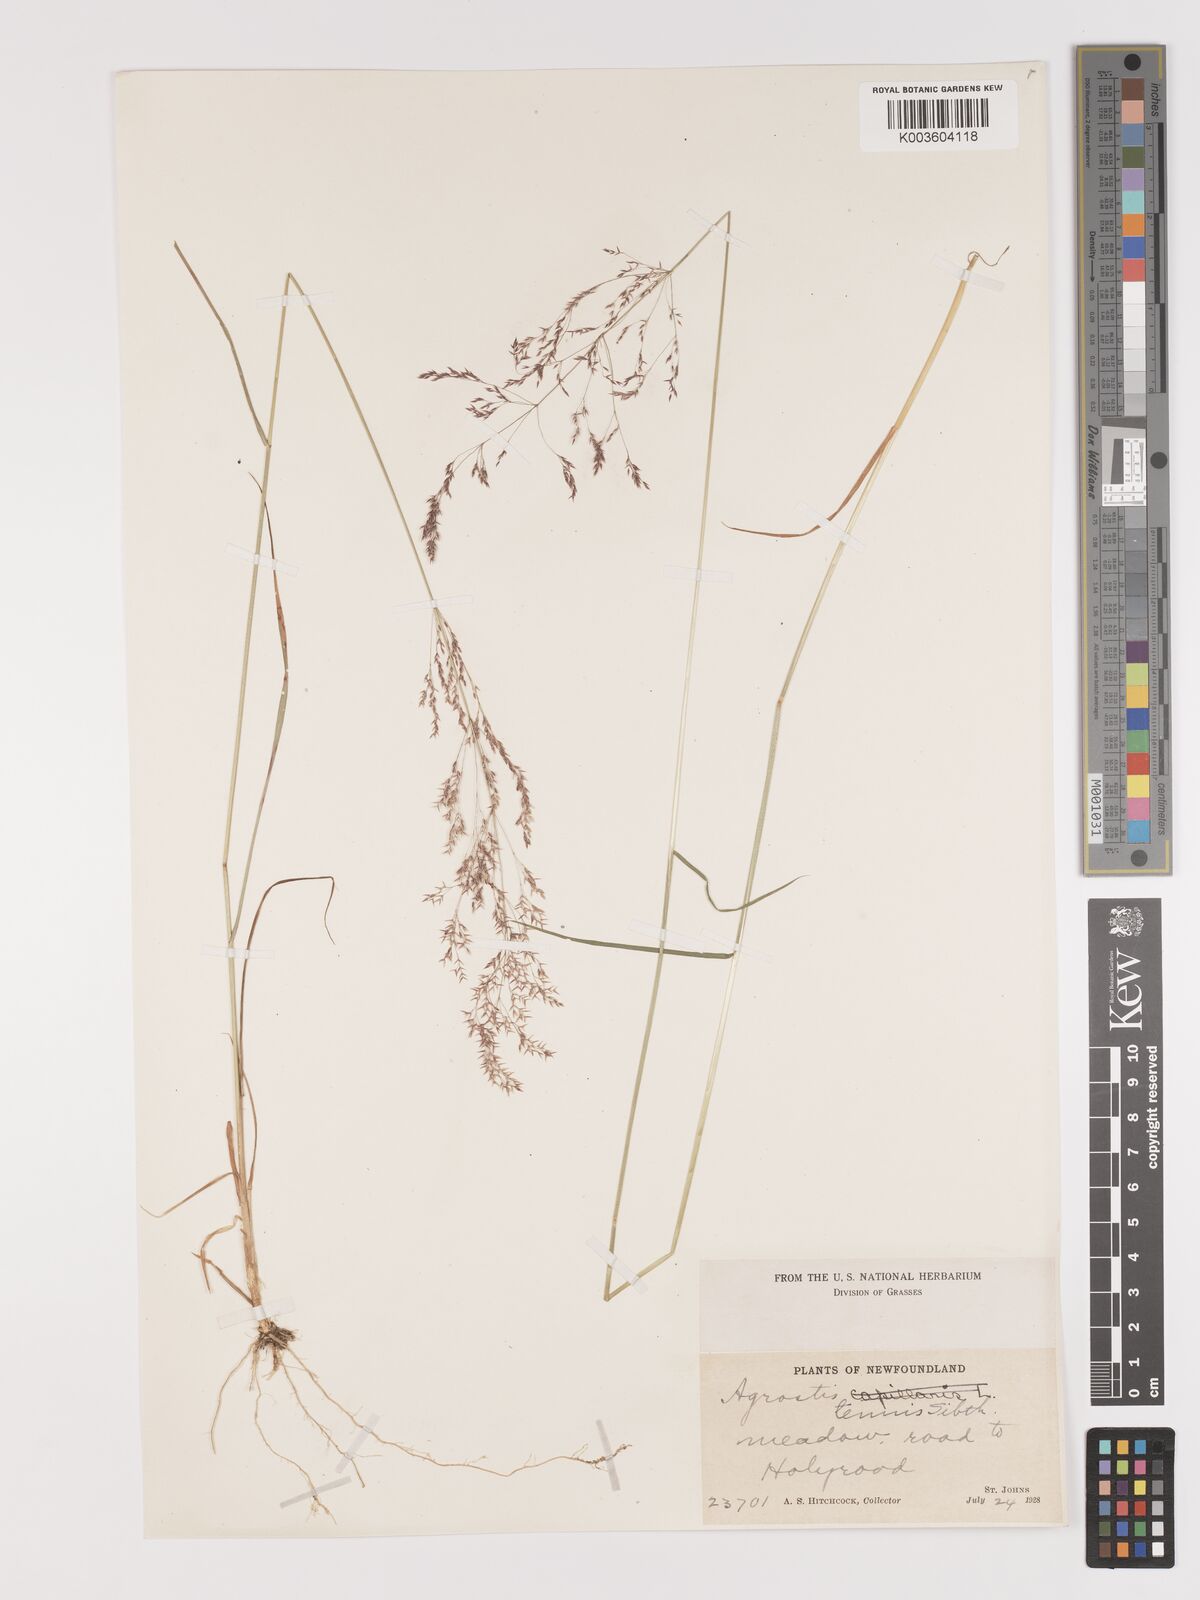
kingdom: Plantae
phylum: Tracheophyta
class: Liliopsida
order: Poales
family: Poaceae
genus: Agrostis
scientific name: Agrostis capillaris
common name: Colonial bentgrass
